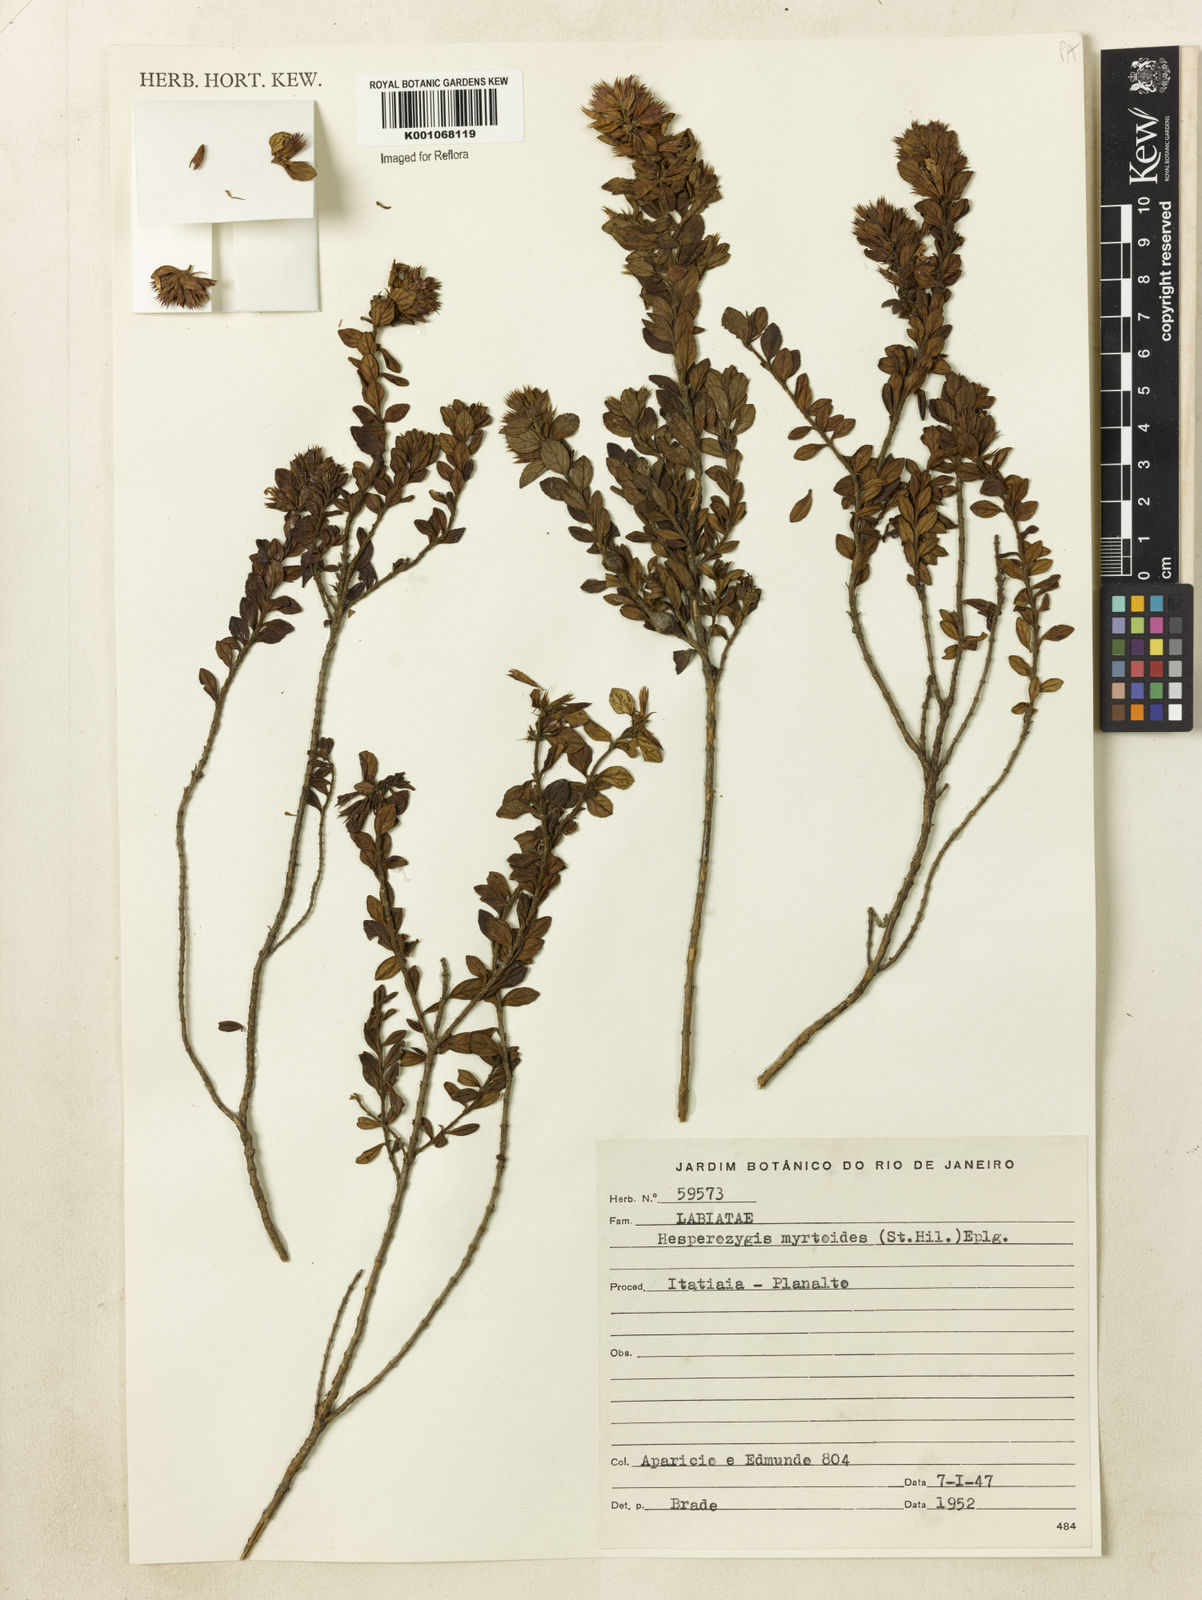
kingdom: Plantae
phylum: Tracheophyta
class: Magnoliopsida
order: Lamiales
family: Lamiaceae
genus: Hesperozygis
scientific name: Hesperozygis myrtoides
